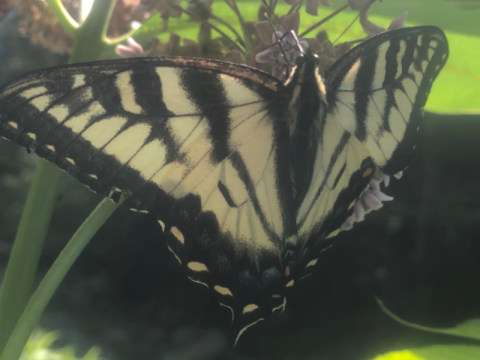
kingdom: Animalia
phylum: Arthropoda
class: Insecta
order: Lepidoptera
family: Papilionidae
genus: Pterourus
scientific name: Pterourus canadensis
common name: Canadian Tiger Swallowtail
